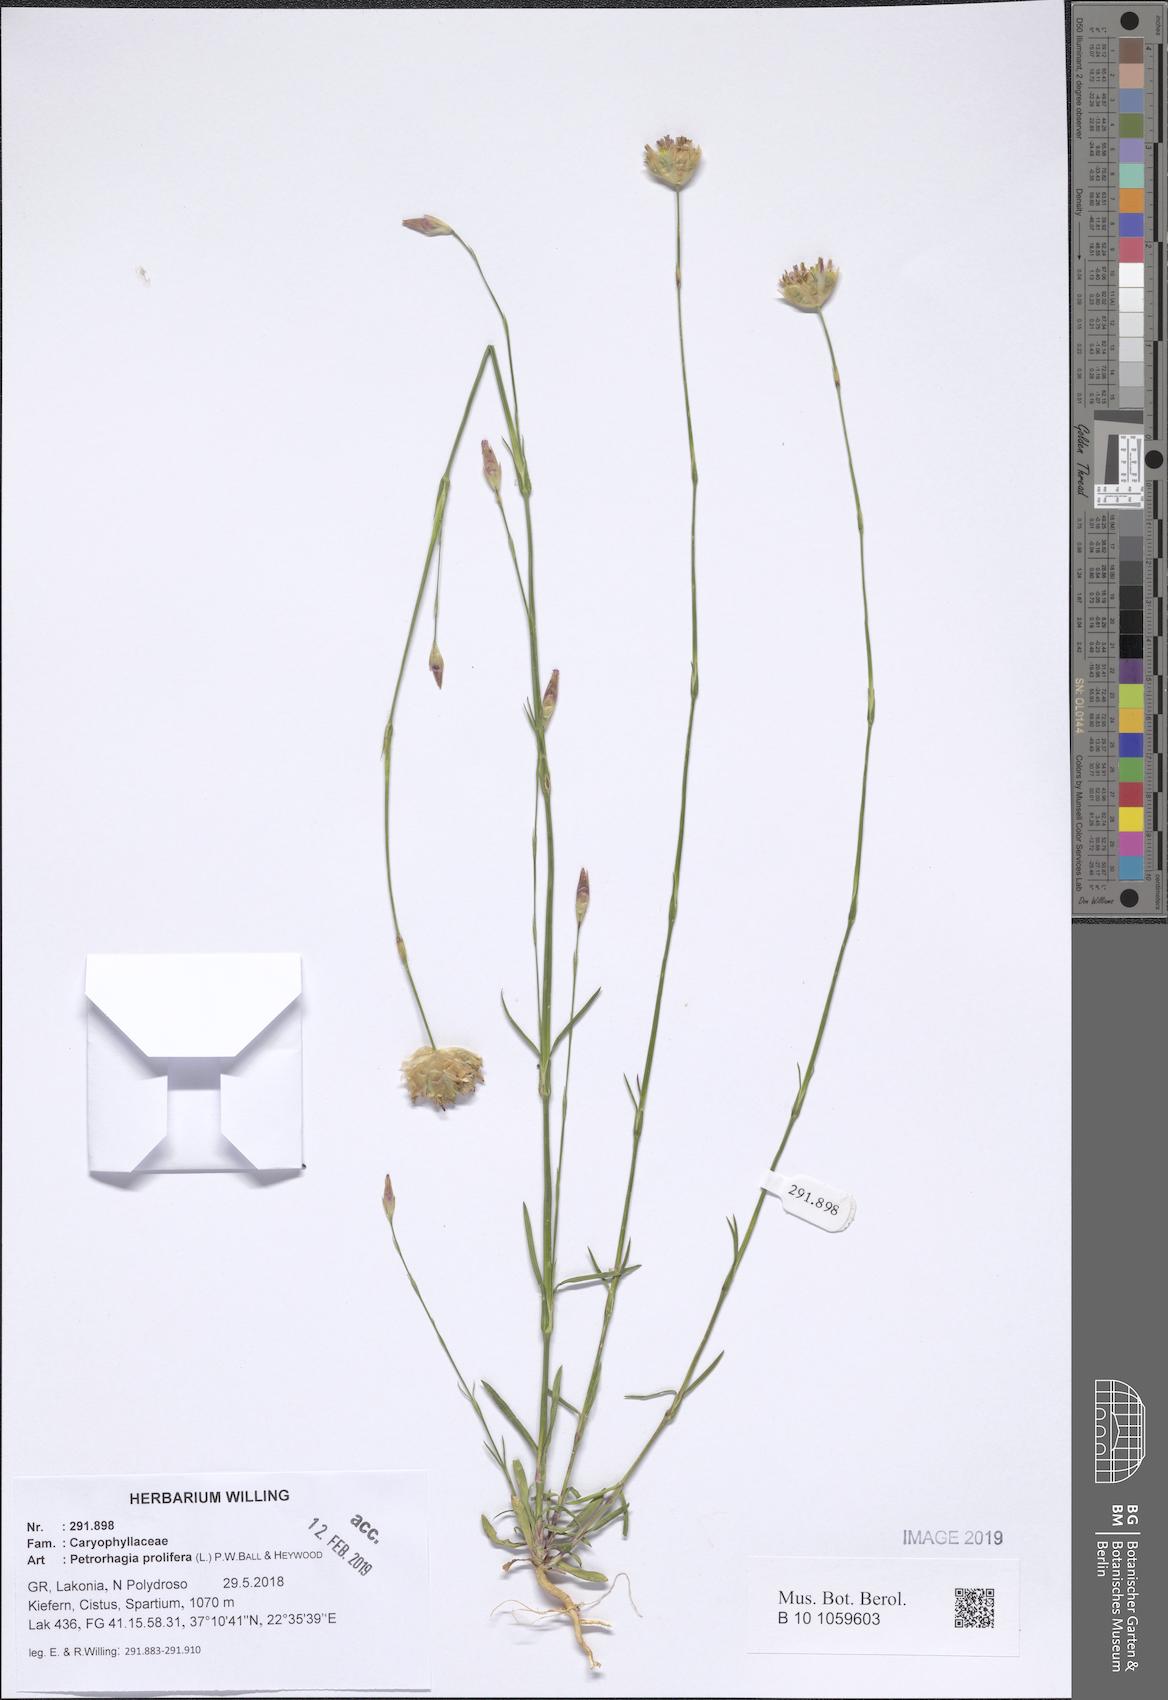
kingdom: Plantae
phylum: Tracheophyta
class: Magnoliopsida
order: Caryophyllales
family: Caryophyllaceae
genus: Petrorhagia
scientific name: Petrorhagia prolifera
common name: Proliferous pink
